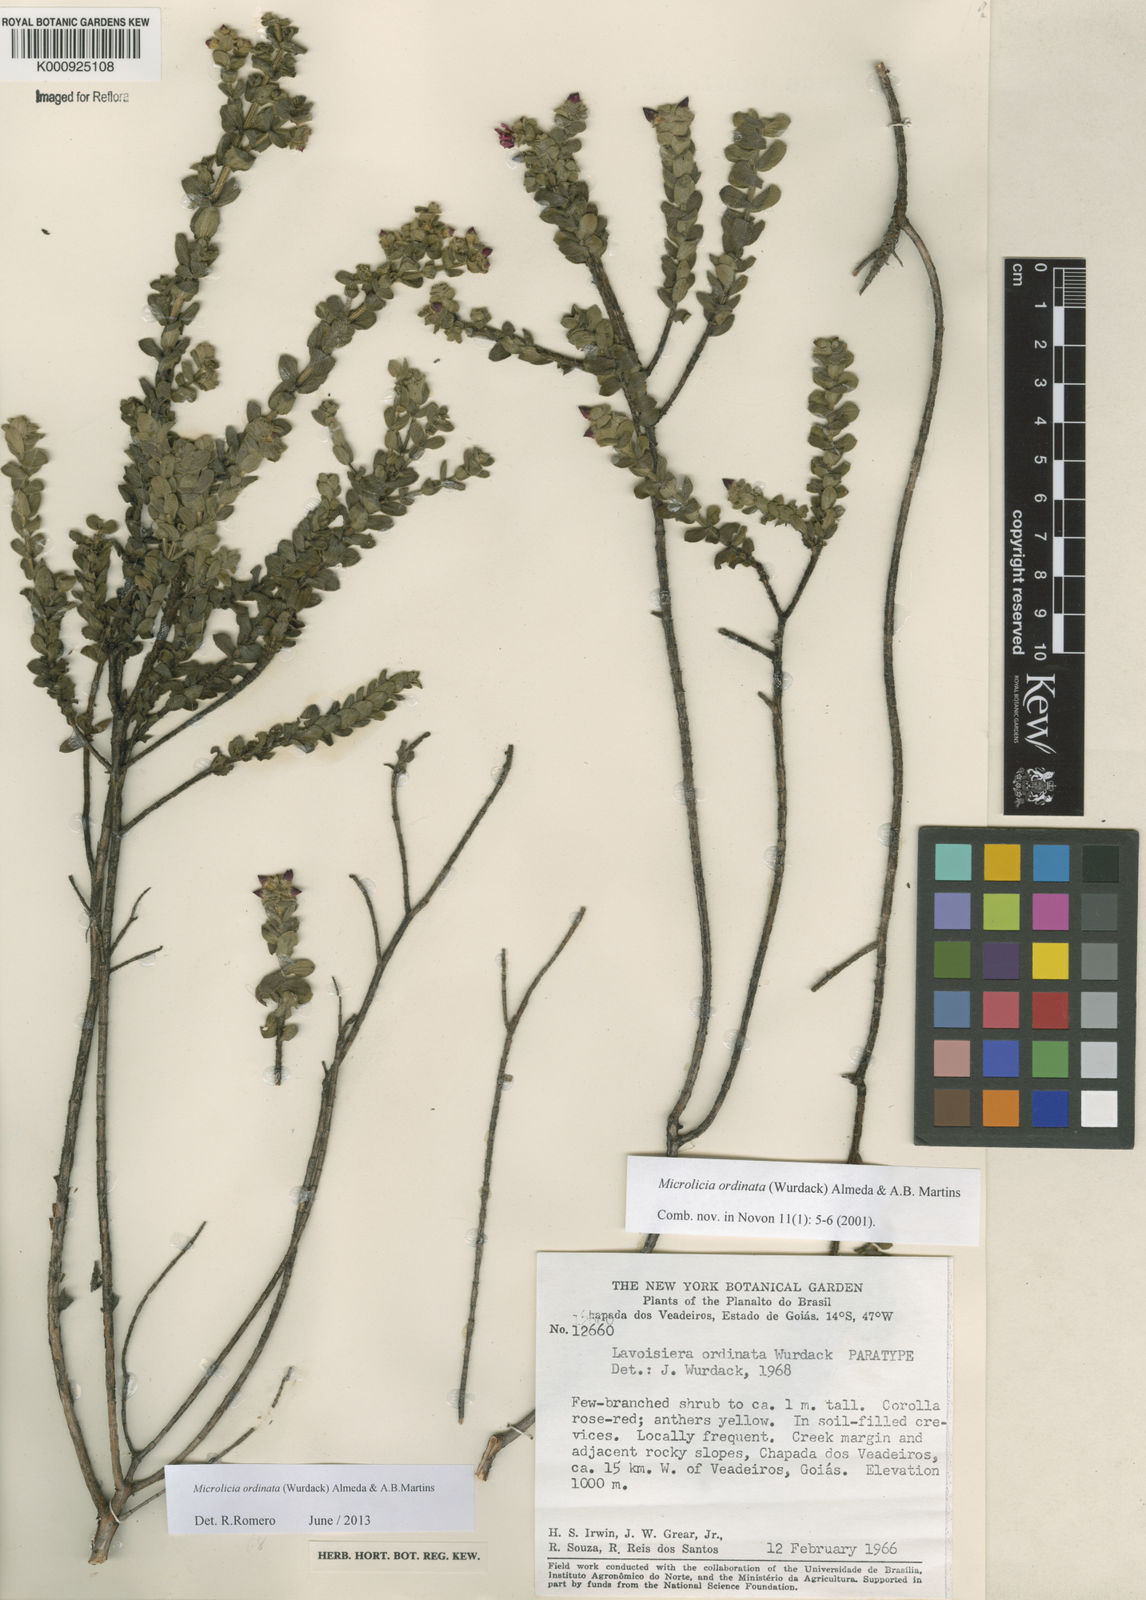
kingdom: Plantae
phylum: Tracheophyta
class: Magnoliopsida
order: Myrtales
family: Melastomataceae
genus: Microlicia
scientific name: Microlicia ordinata
